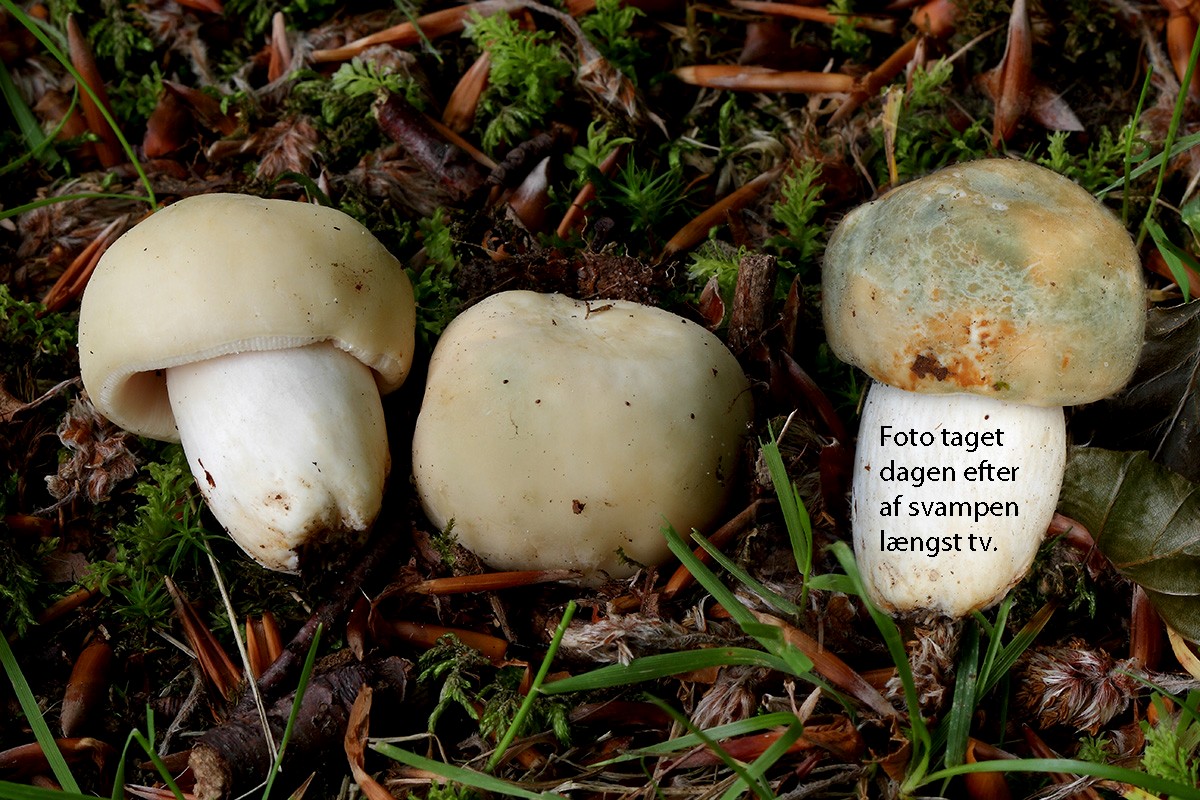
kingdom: Fungi
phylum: Basidiomycota
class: Agaricomycetes
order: Russulales
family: Russulaceae
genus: Russula
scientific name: Russula virescens
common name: spanskgrøn skørhat
